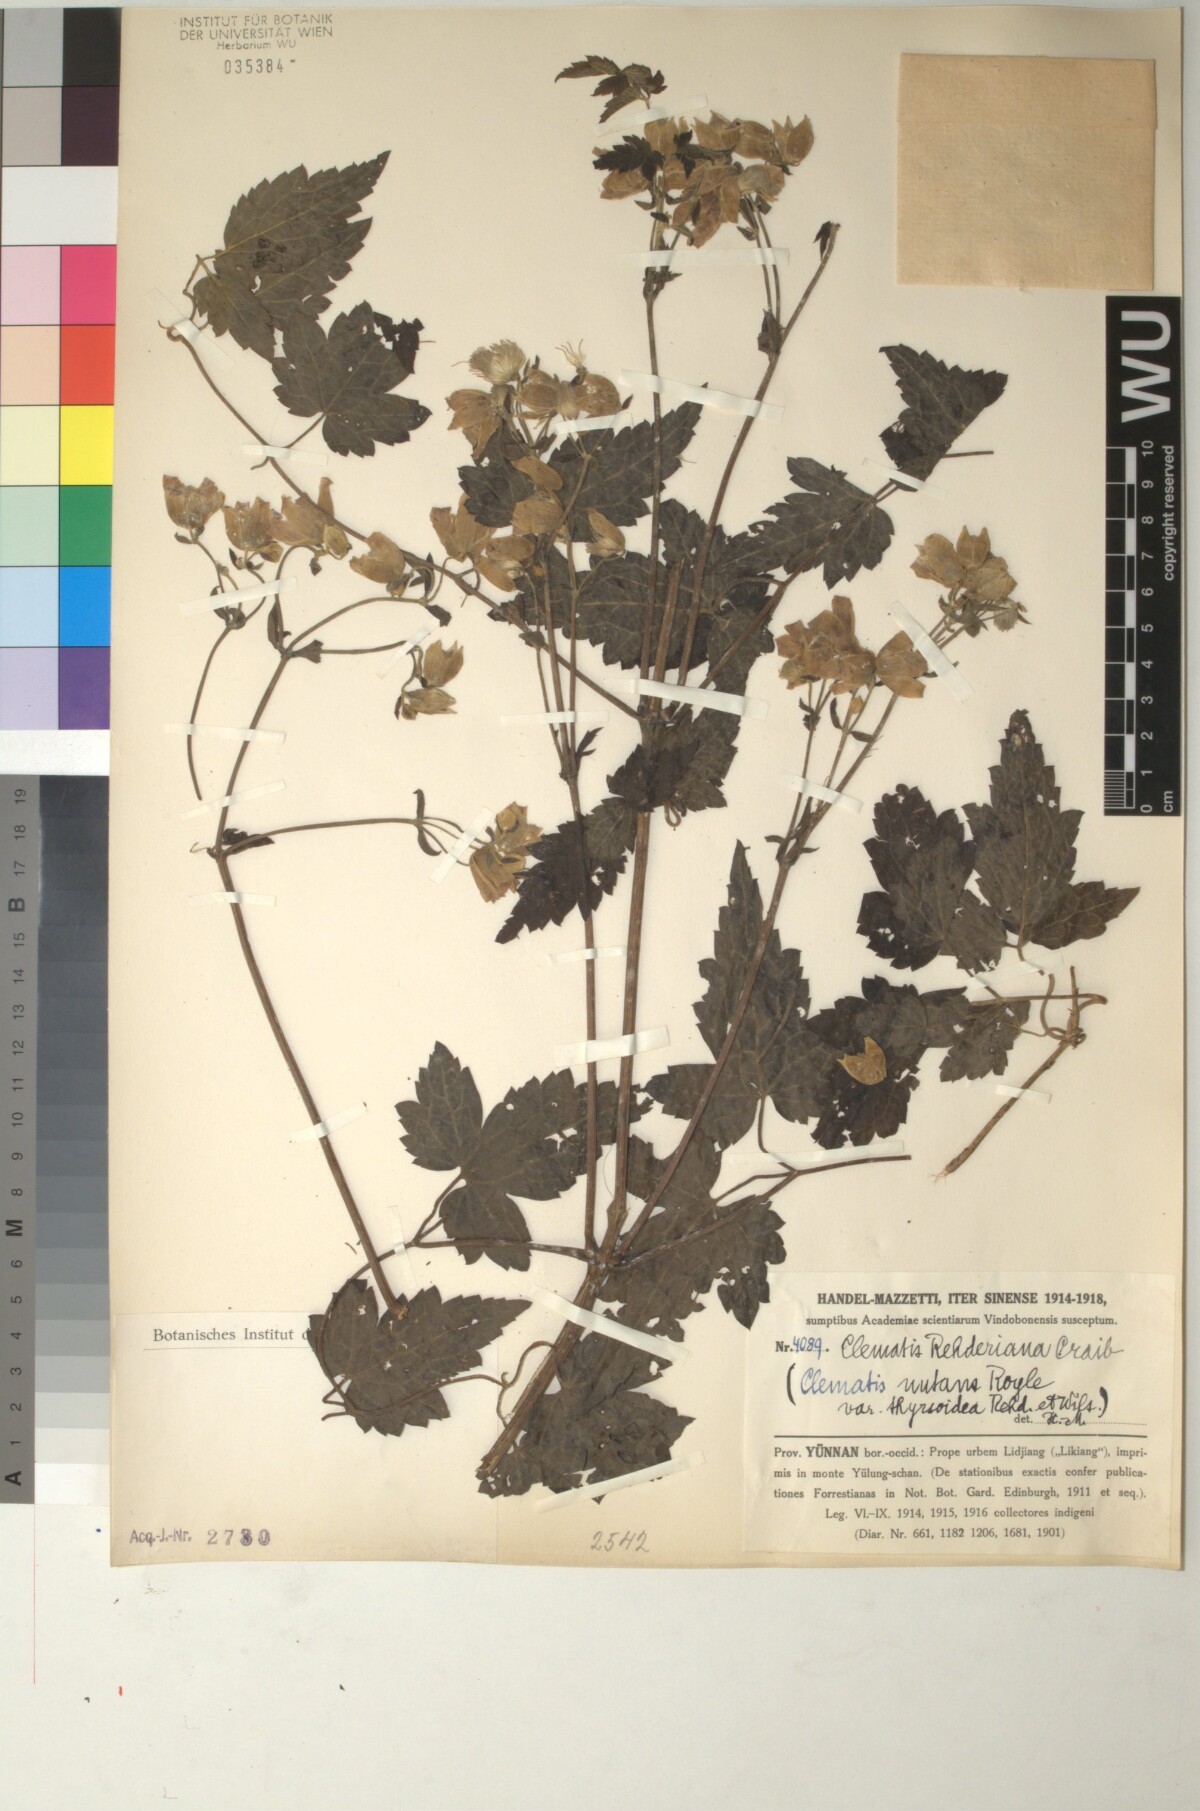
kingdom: Plantae
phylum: Tracheophyta
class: Magnoliopsida
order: Ranunculales
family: Ranunculaceae
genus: Clematis
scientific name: Clematis rehderiana
